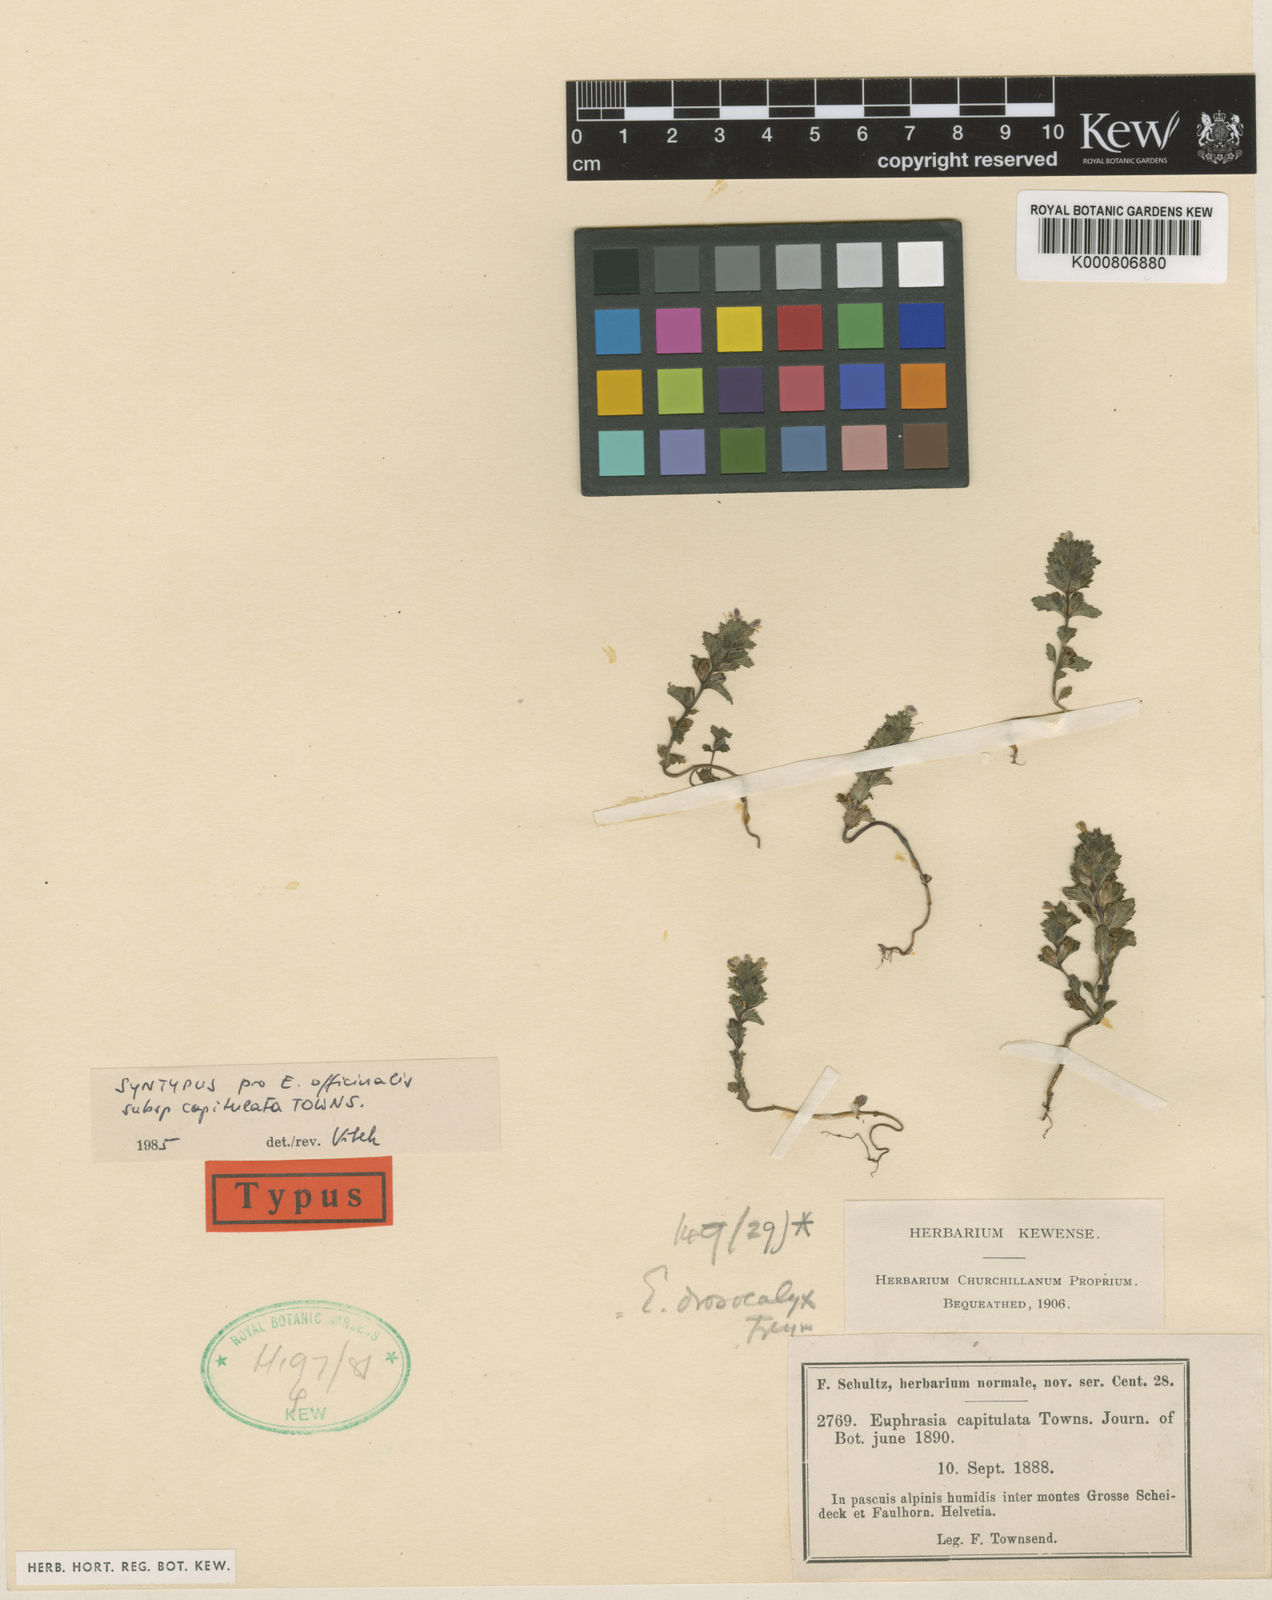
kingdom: Plantae
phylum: Tracheophyta
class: Magnoliopsida
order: Lamiales
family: Orobanchaceae
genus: Euphrasia
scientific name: Euphrasia drosocalyx
